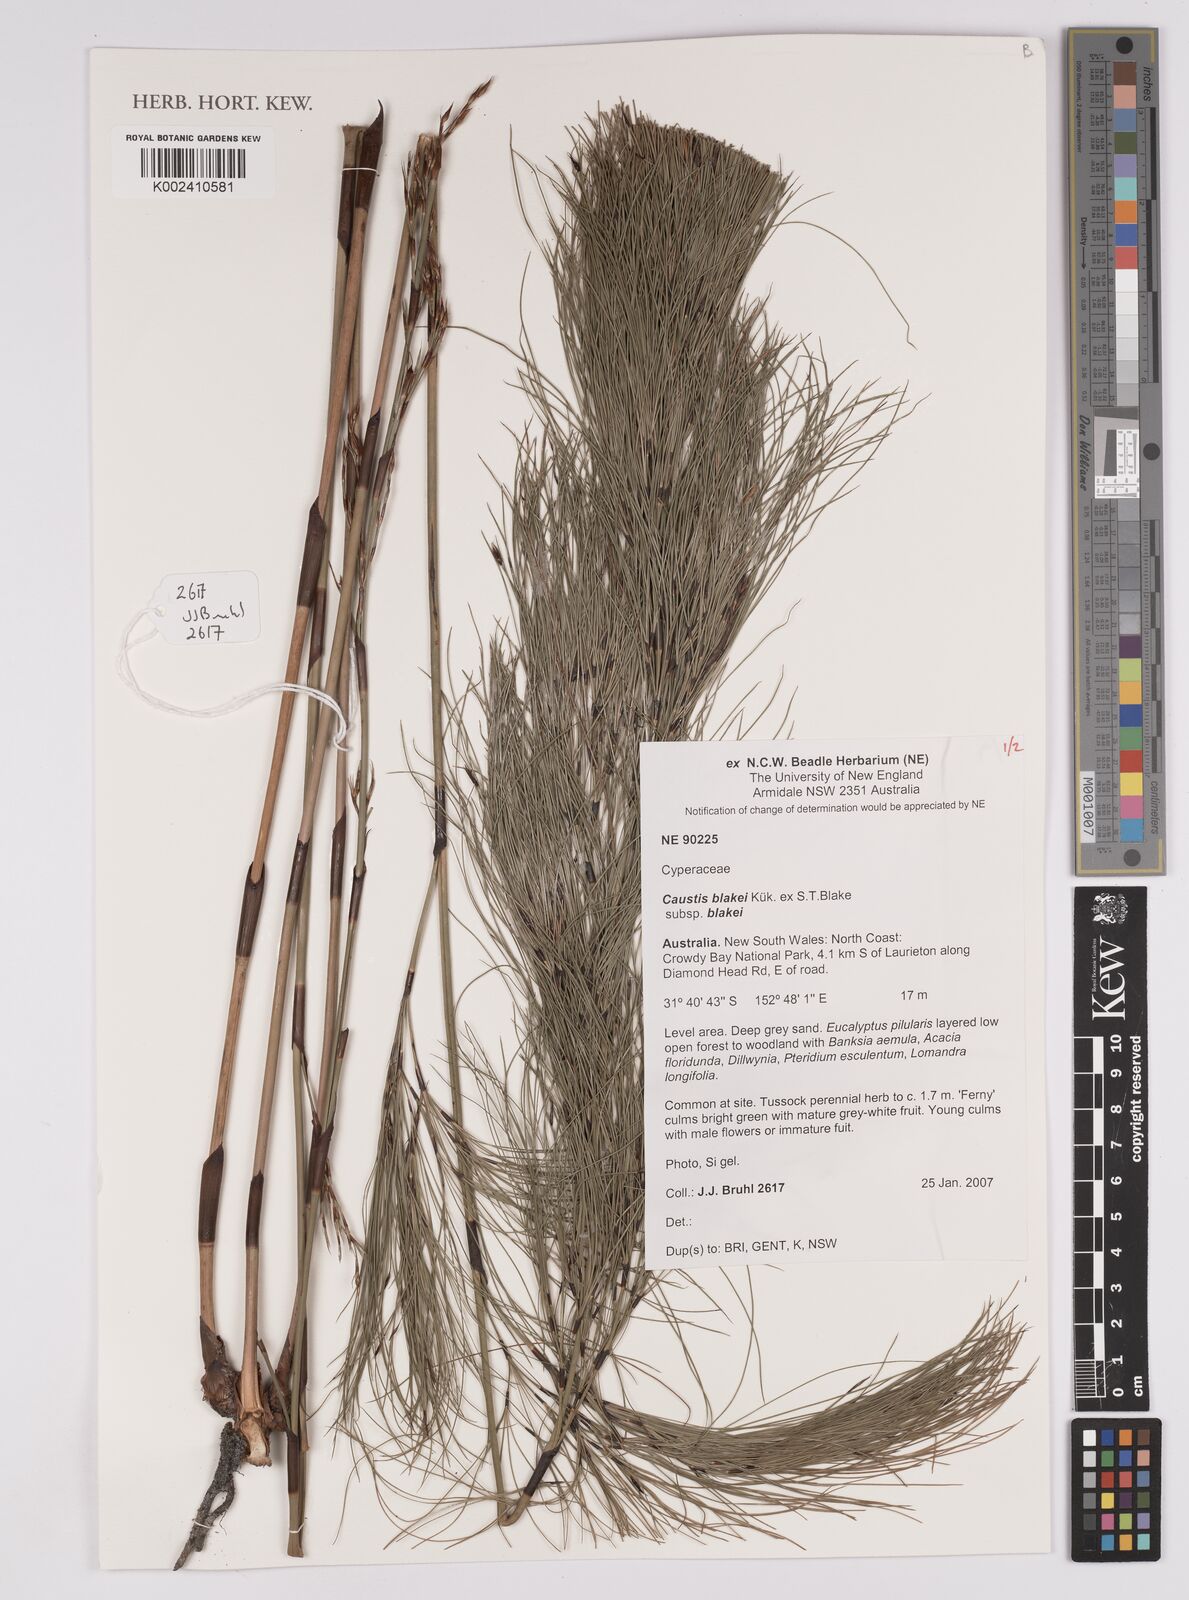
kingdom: Plantae
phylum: Tracheophyta
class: Liliopsida
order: Poales
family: Cyperaceae
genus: Caustis
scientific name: Caustis blakei
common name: Foxtail-fern
